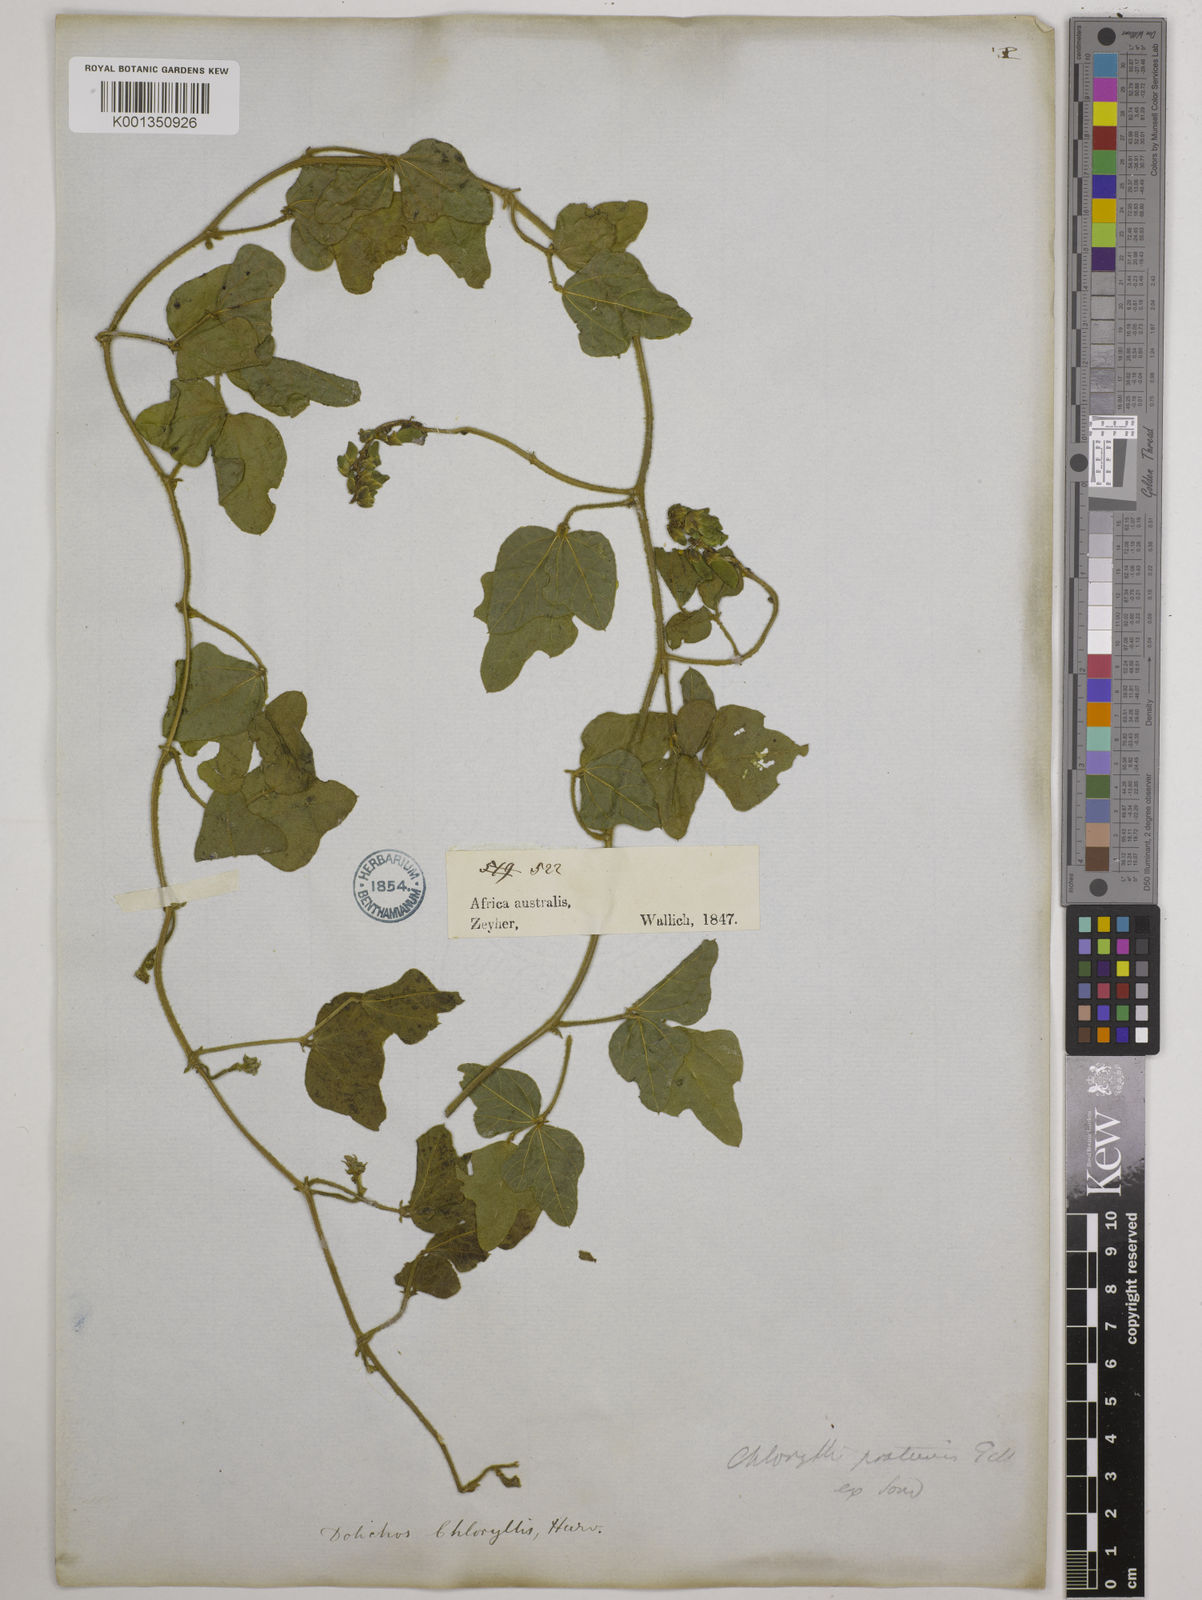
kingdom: Plantae
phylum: Tracheophyta
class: Magnoliopsida
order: Fabales
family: Fabaceae
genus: Dolichos
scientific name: Dolichos pratensis
